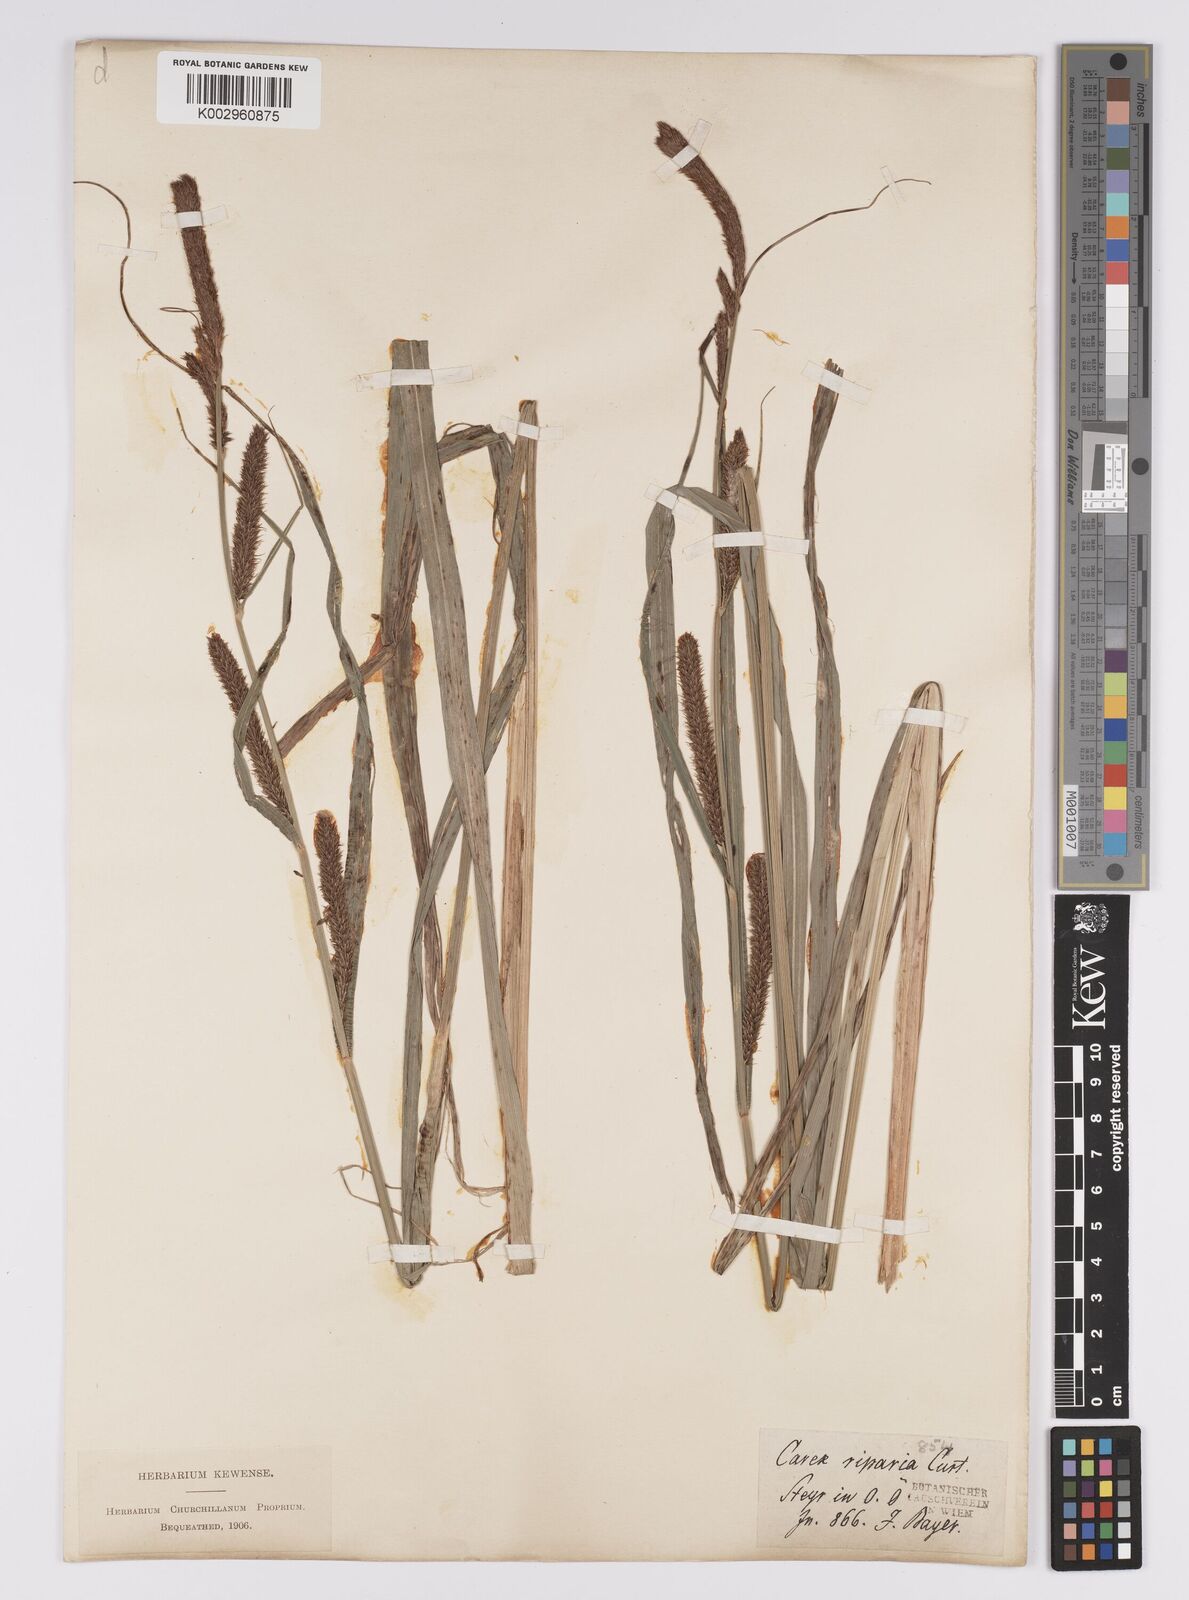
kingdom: Plantae
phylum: Tracheophyta
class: Liliopsida
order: Poales
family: Cyperaceae
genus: Carex
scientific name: Carex acutiformis
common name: Lesser pond-sedge
